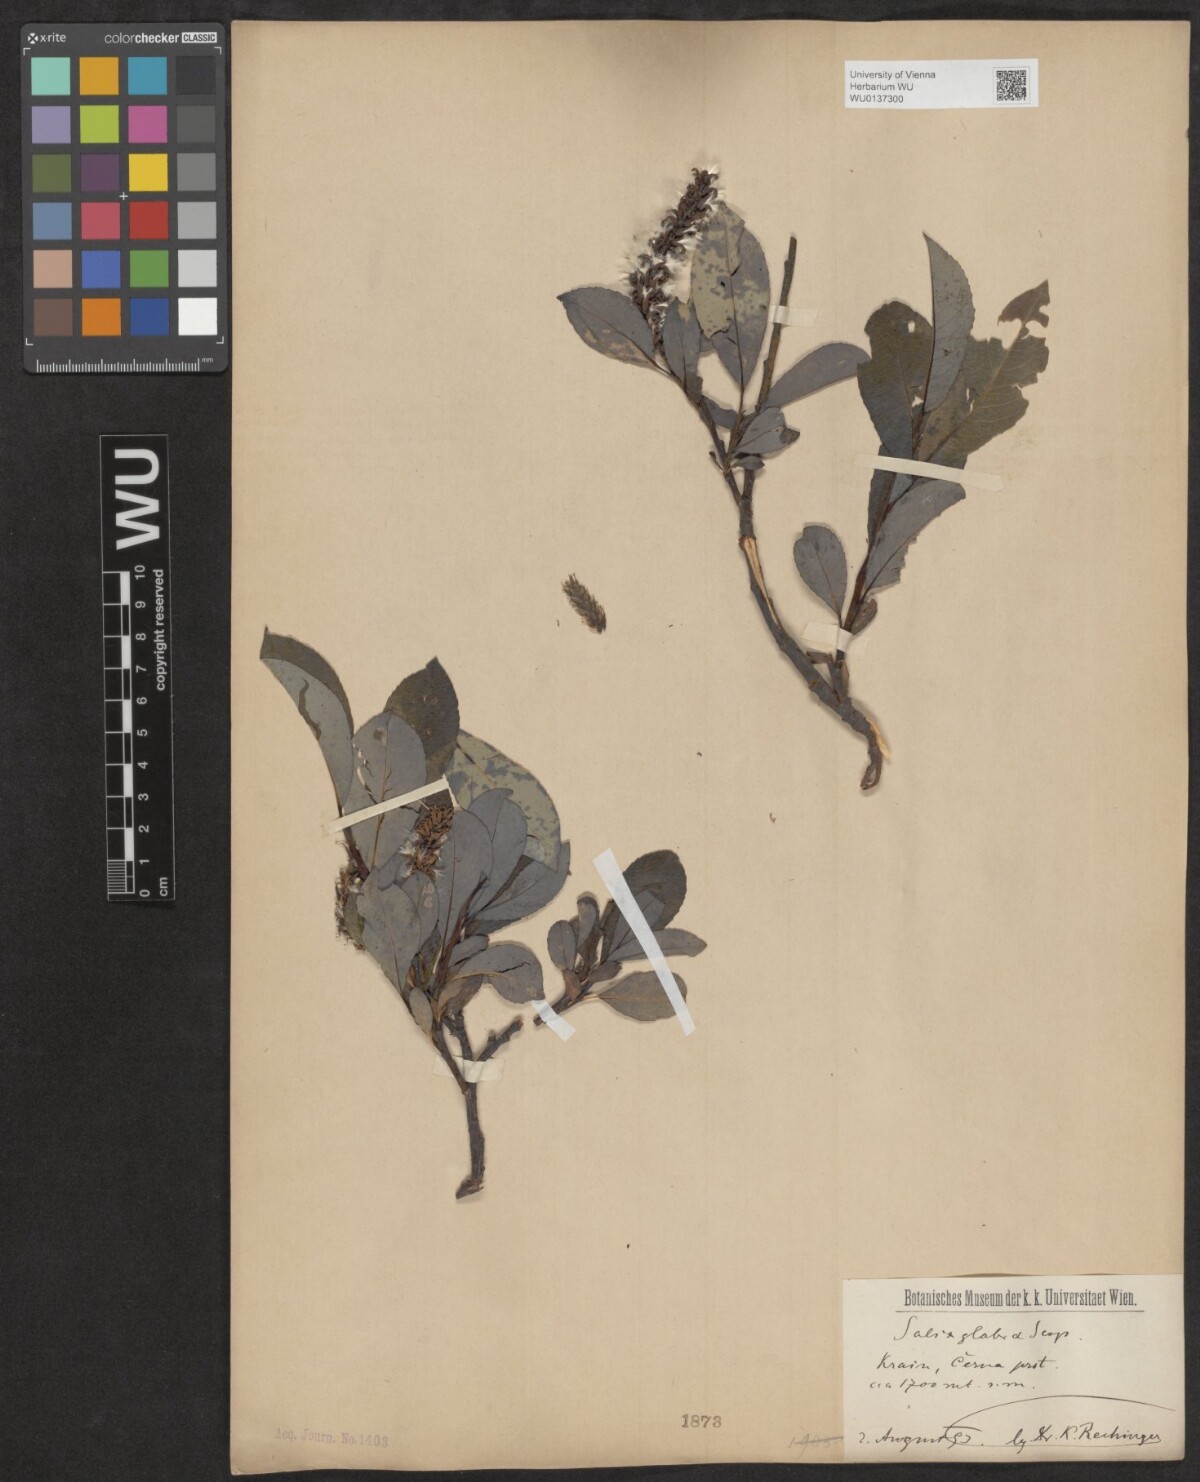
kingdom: Plantae
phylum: Tracheophyta
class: Magnoliopsida
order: Malpighiales
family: Salicaceae
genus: Salix
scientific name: Salix glabra
